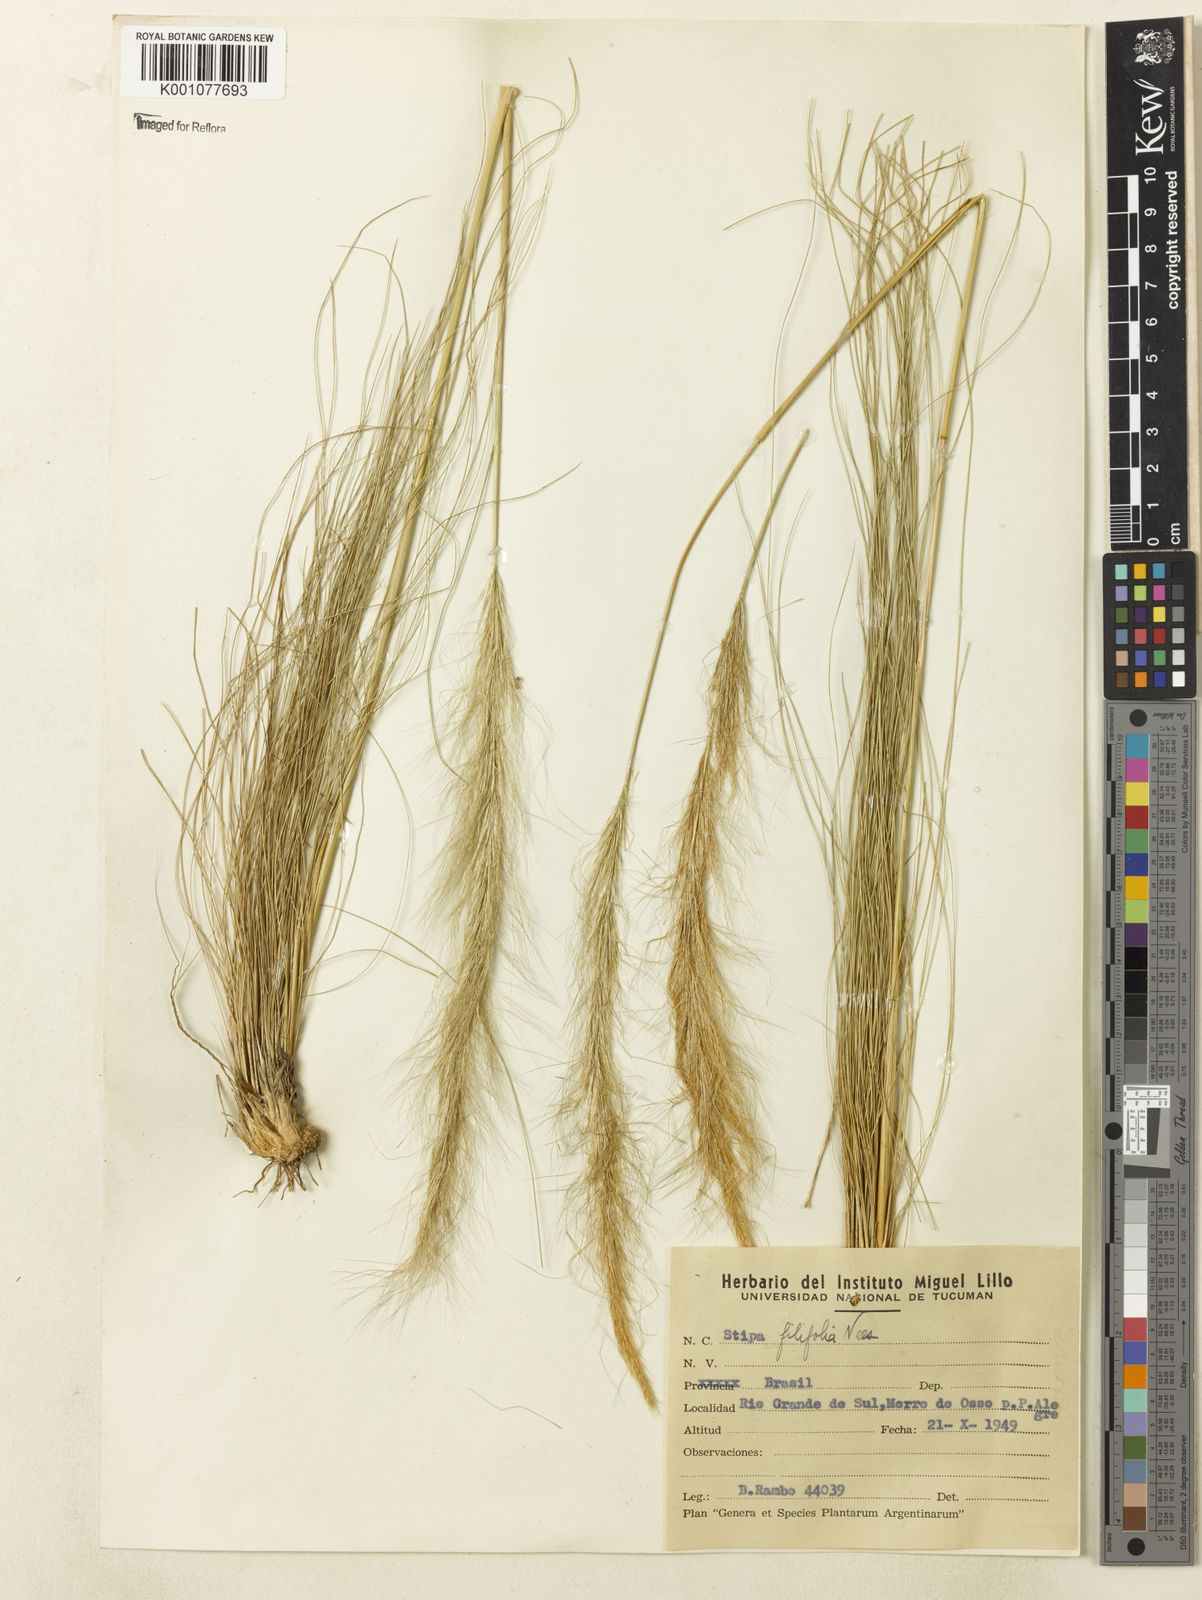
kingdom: Plantae
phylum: Tracheophyta
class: Liliopsida
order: Poales
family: Poaceae
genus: Nassella
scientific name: Nassella
